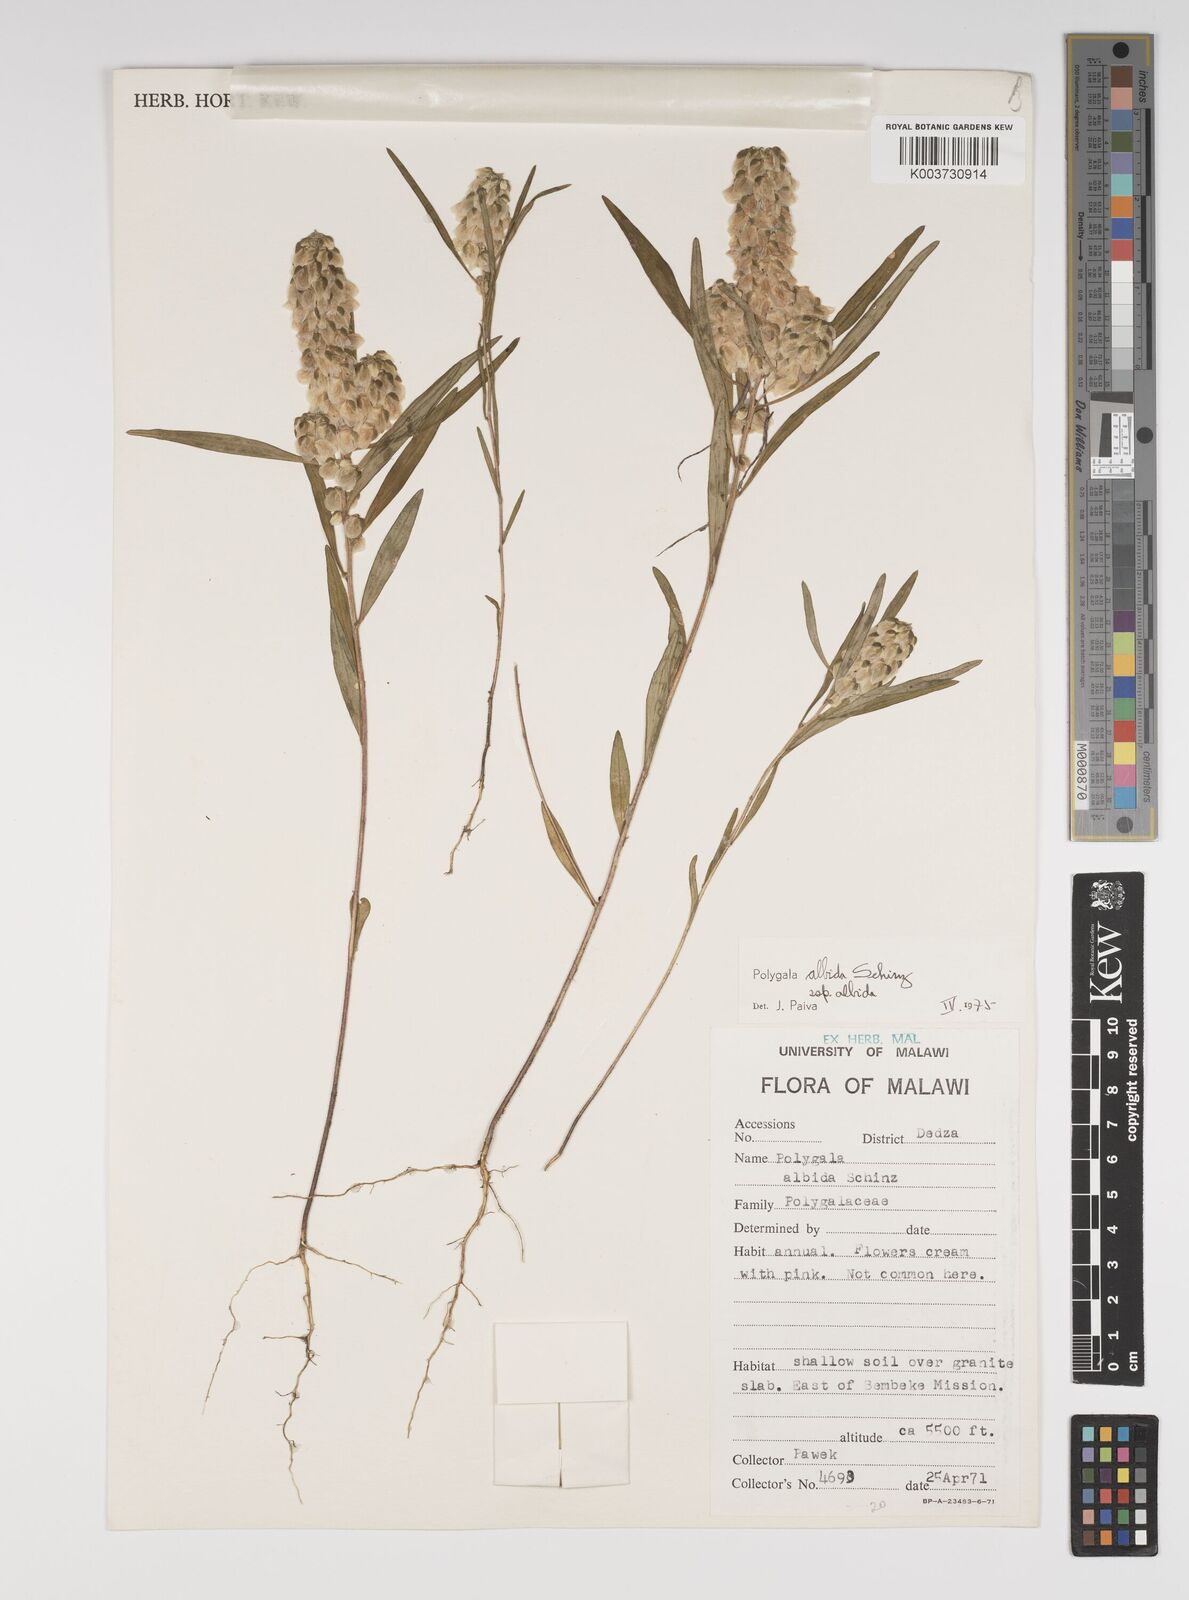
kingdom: Plantae
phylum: Tracheophyta
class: Magnoliopsida
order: Fabales
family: Polygalaceae
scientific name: Polygalaceae
